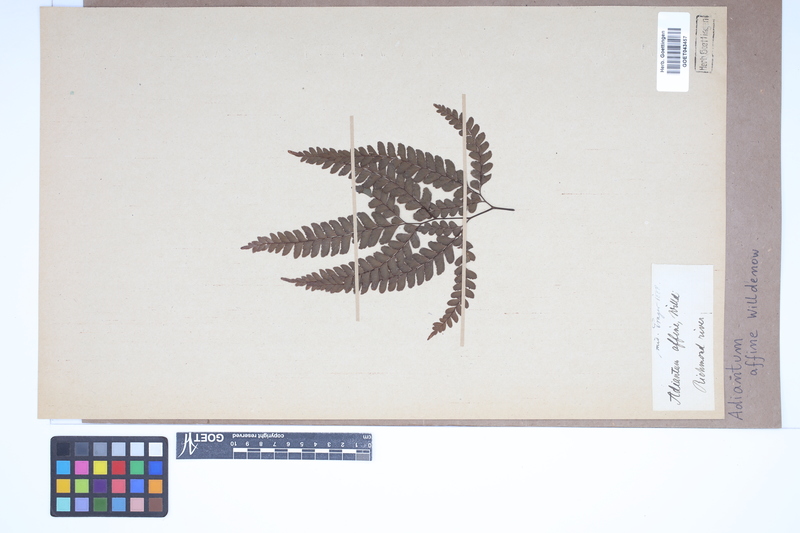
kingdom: Plantae
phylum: Tracheophyta
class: Polypodiopsida
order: Polypodiales
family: Pteridaceae
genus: Adiantum
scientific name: Adiantum capillus-veneris
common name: Maidenhair fern
